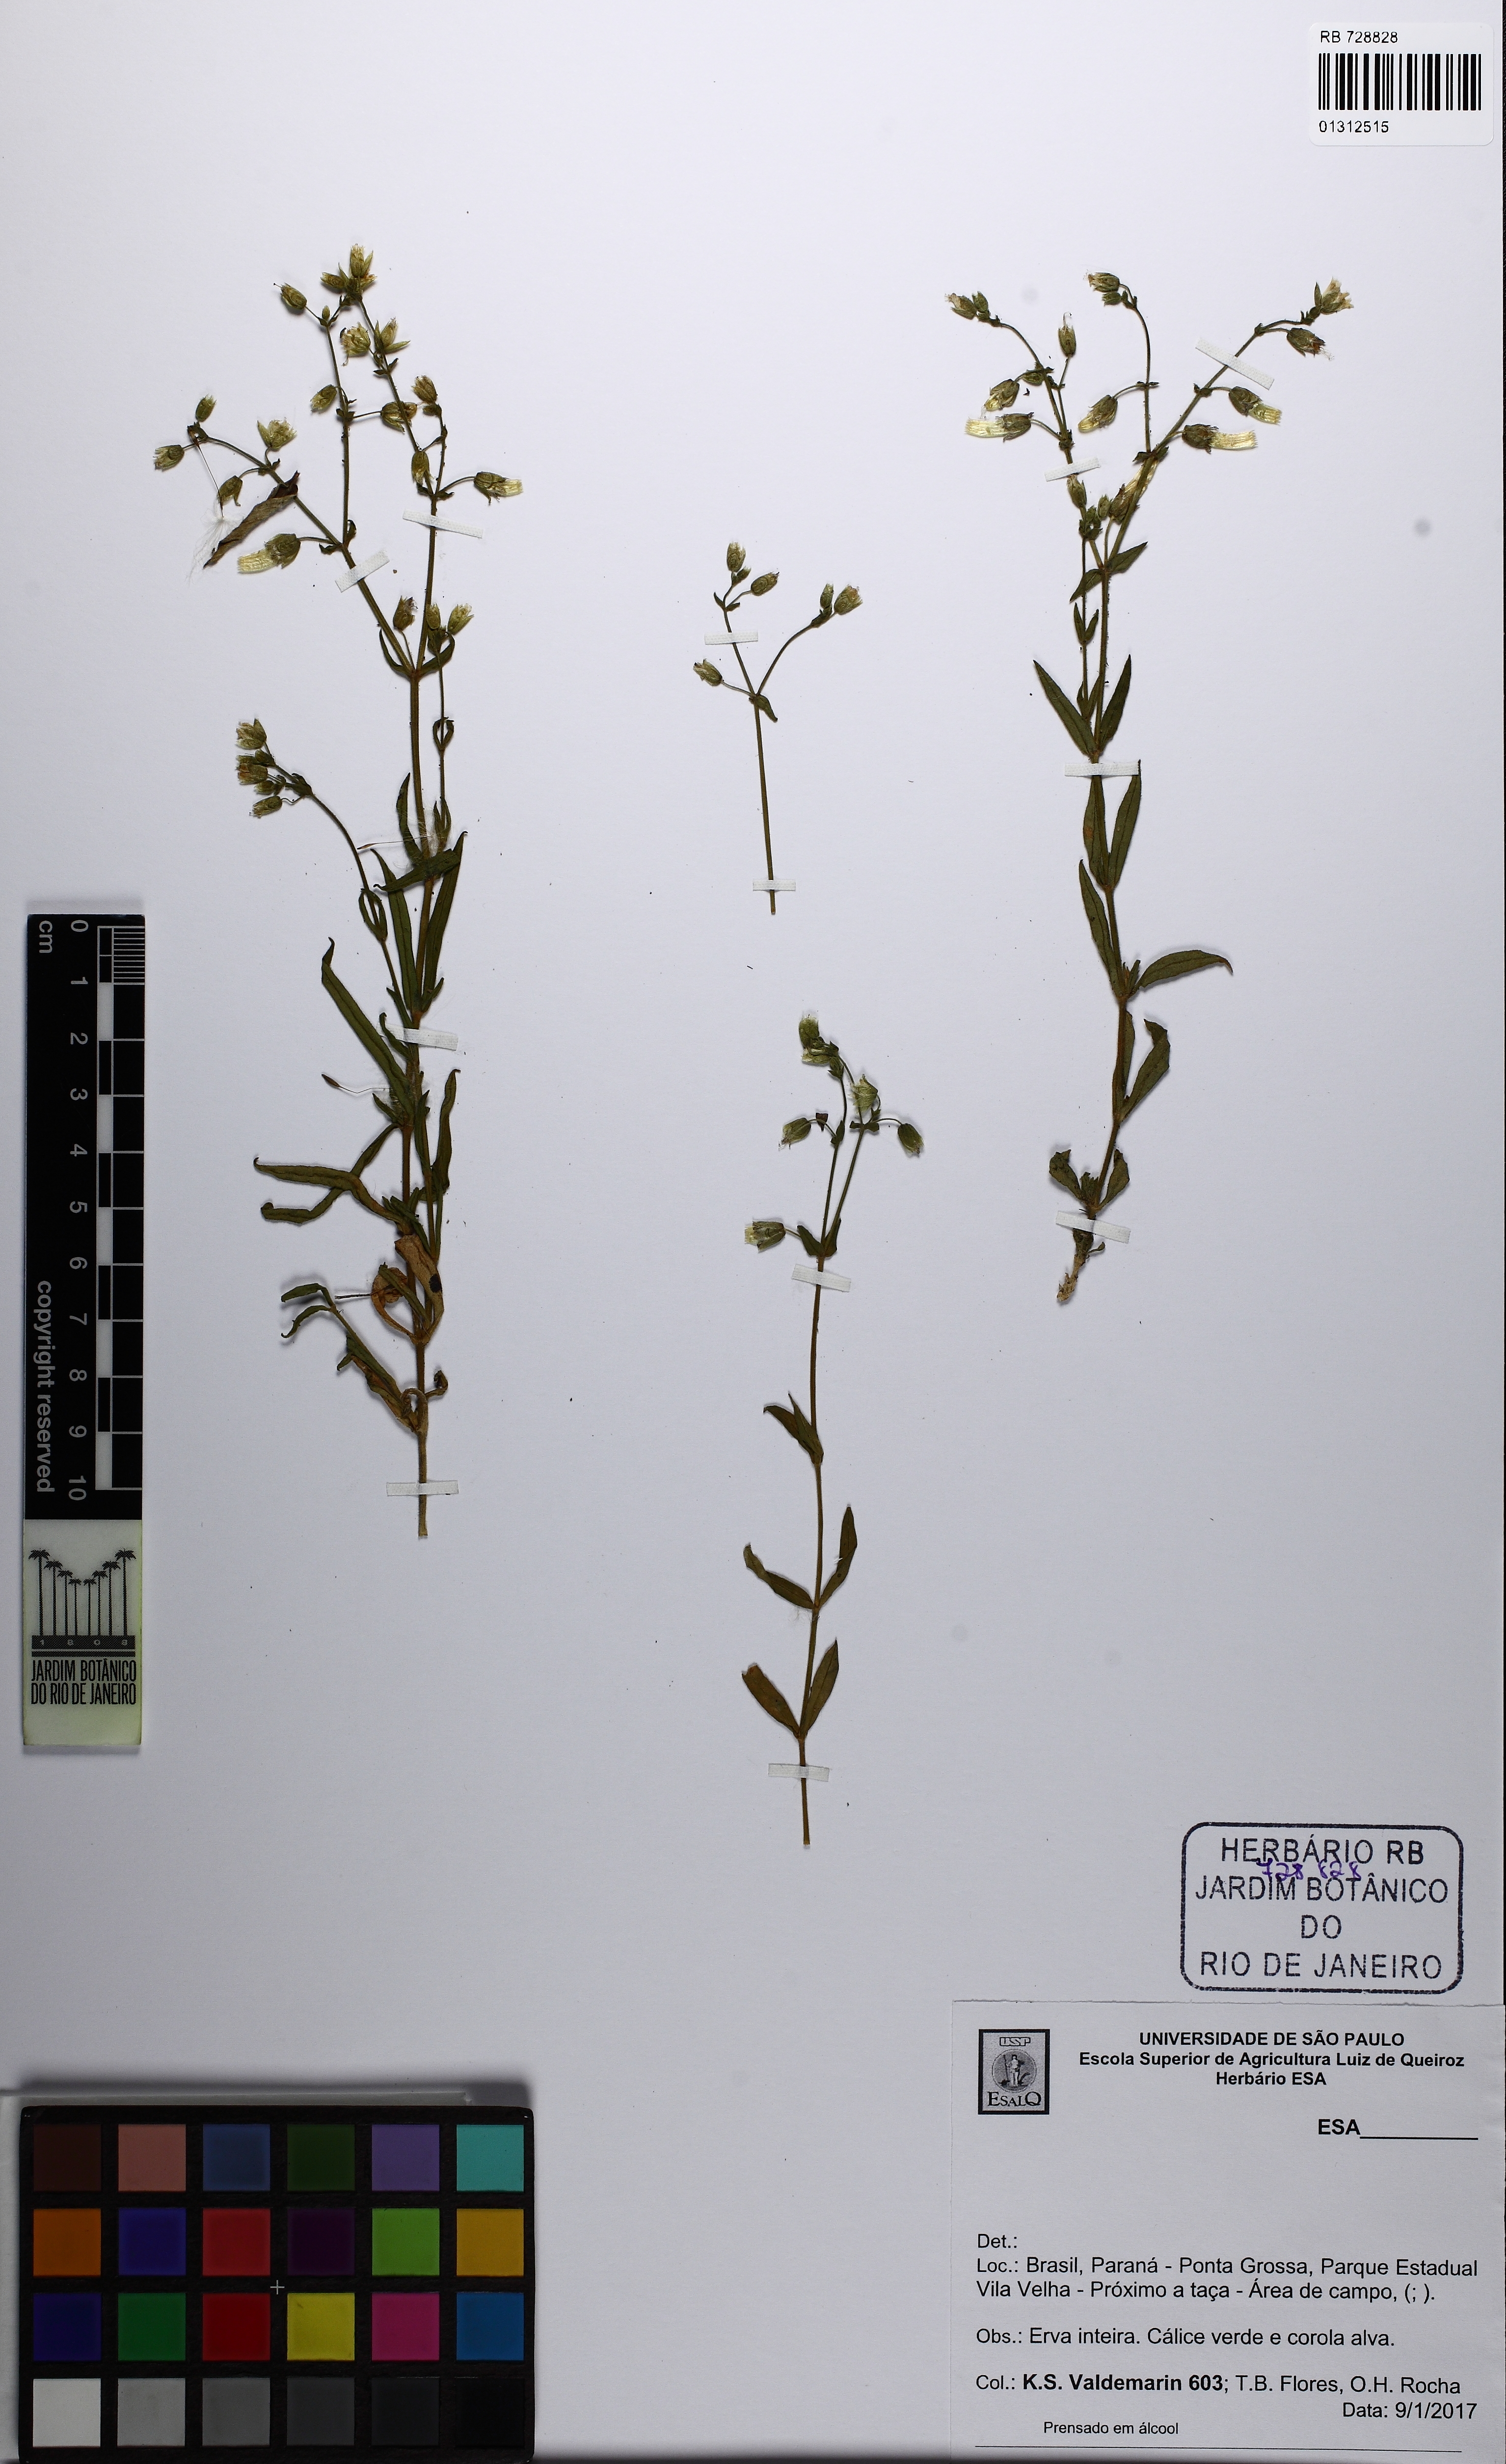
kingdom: Plantae
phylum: Tracheophyta
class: Magnoliopsida
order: Caryophyllales
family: Caryophyllaceae
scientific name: Caryophyllaceae
